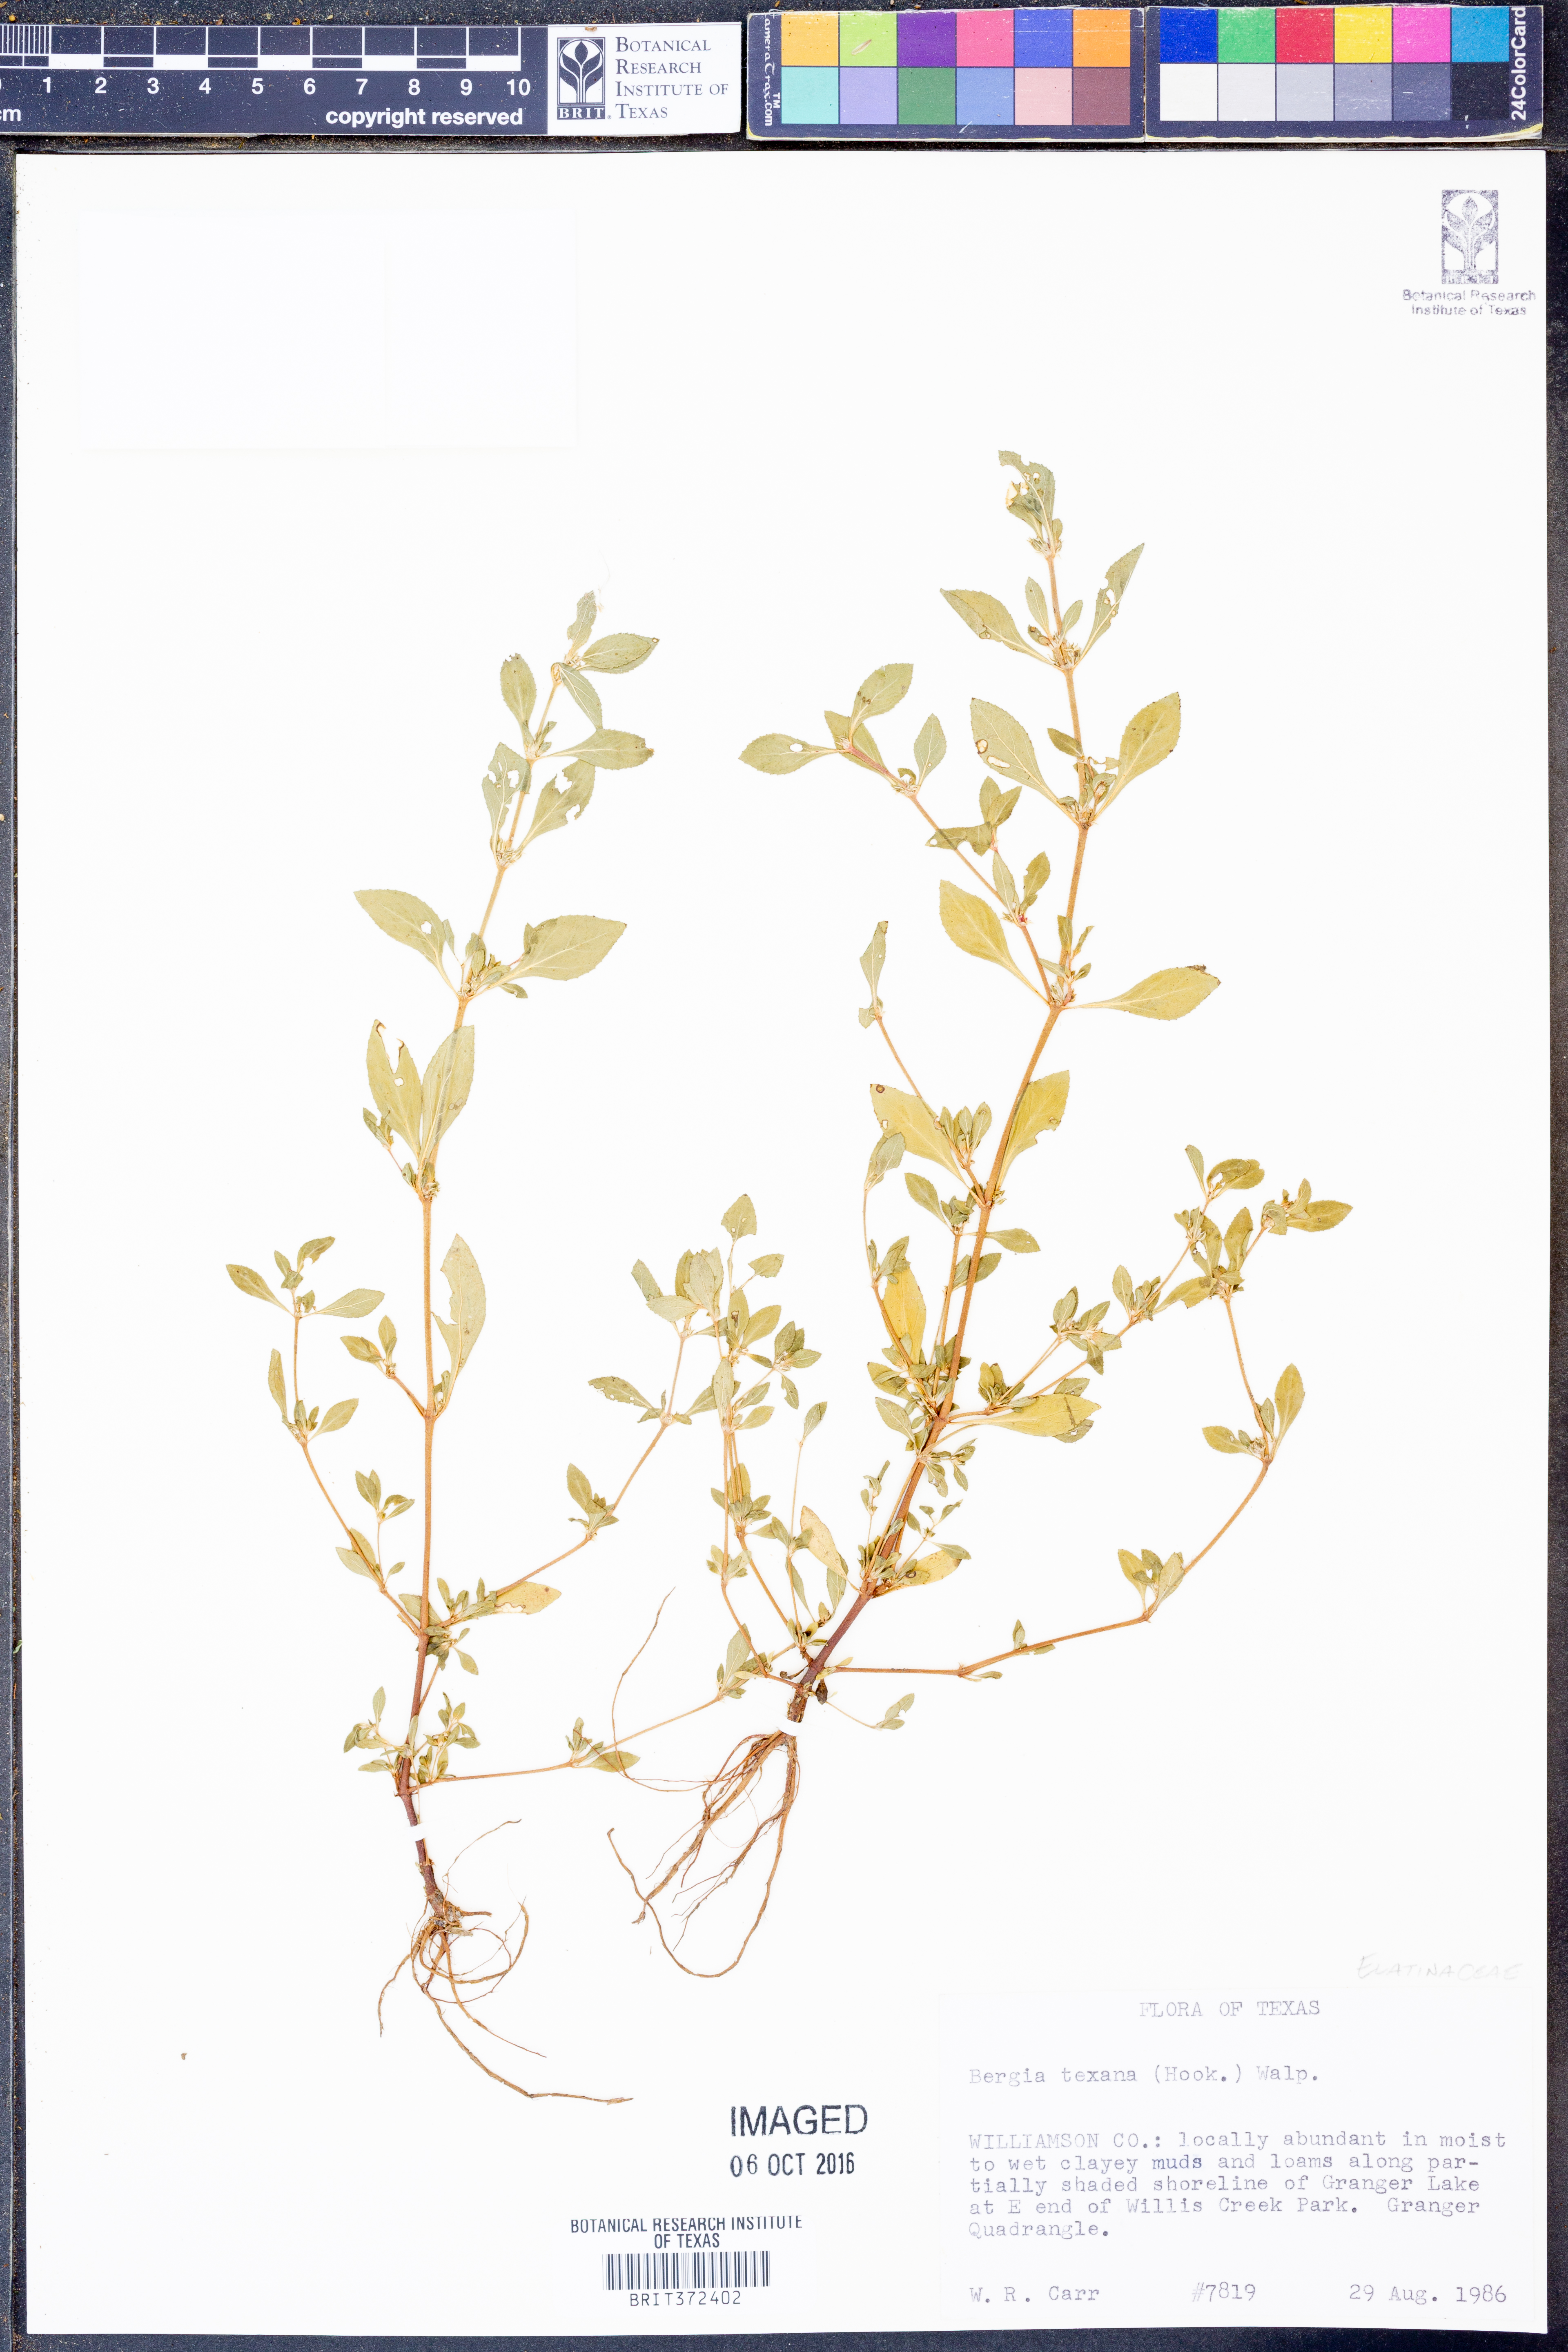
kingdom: Plantae
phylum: Tracheophyta
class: Magnoliopsida
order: Malpighiales
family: Elatinaceae
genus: Bergia
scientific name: Bergia texana
